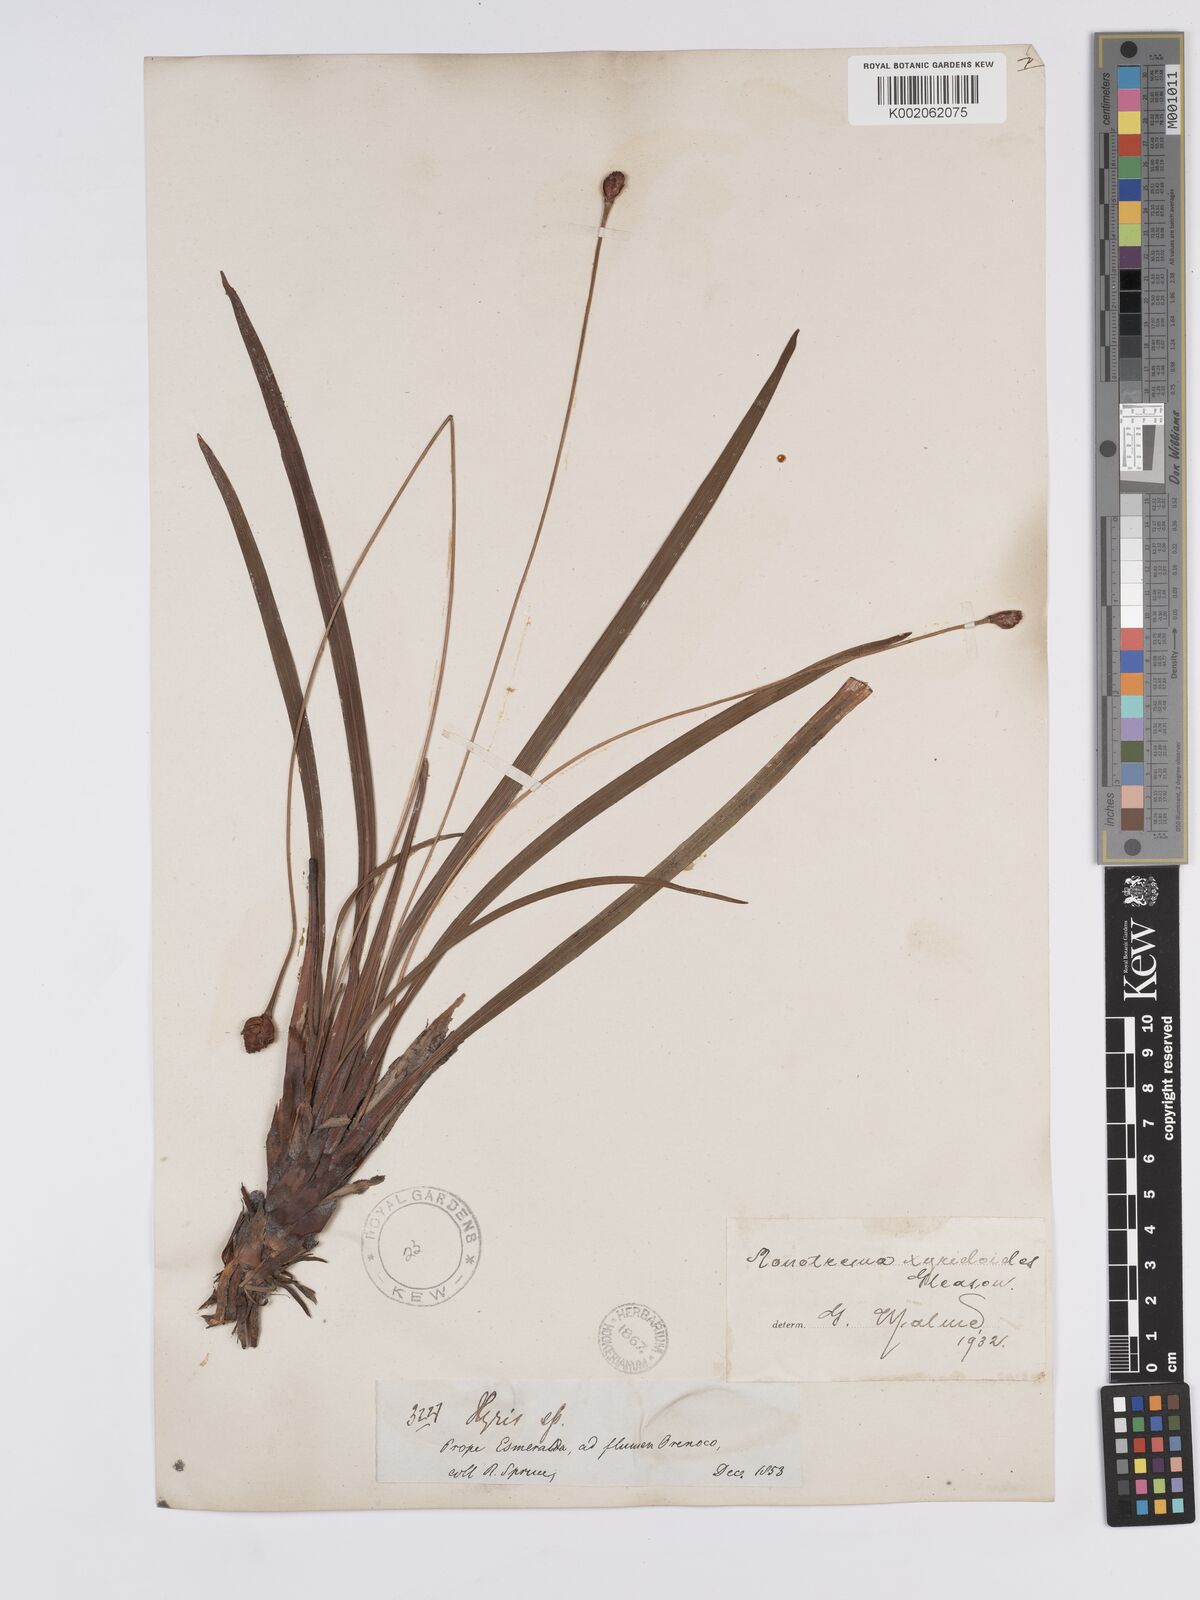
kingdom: Plantae
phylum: Tracheophyta
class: Liliopsida
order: Poales
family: Rapateaceae
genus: Monotrema
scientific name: Monotrema xyridoides
